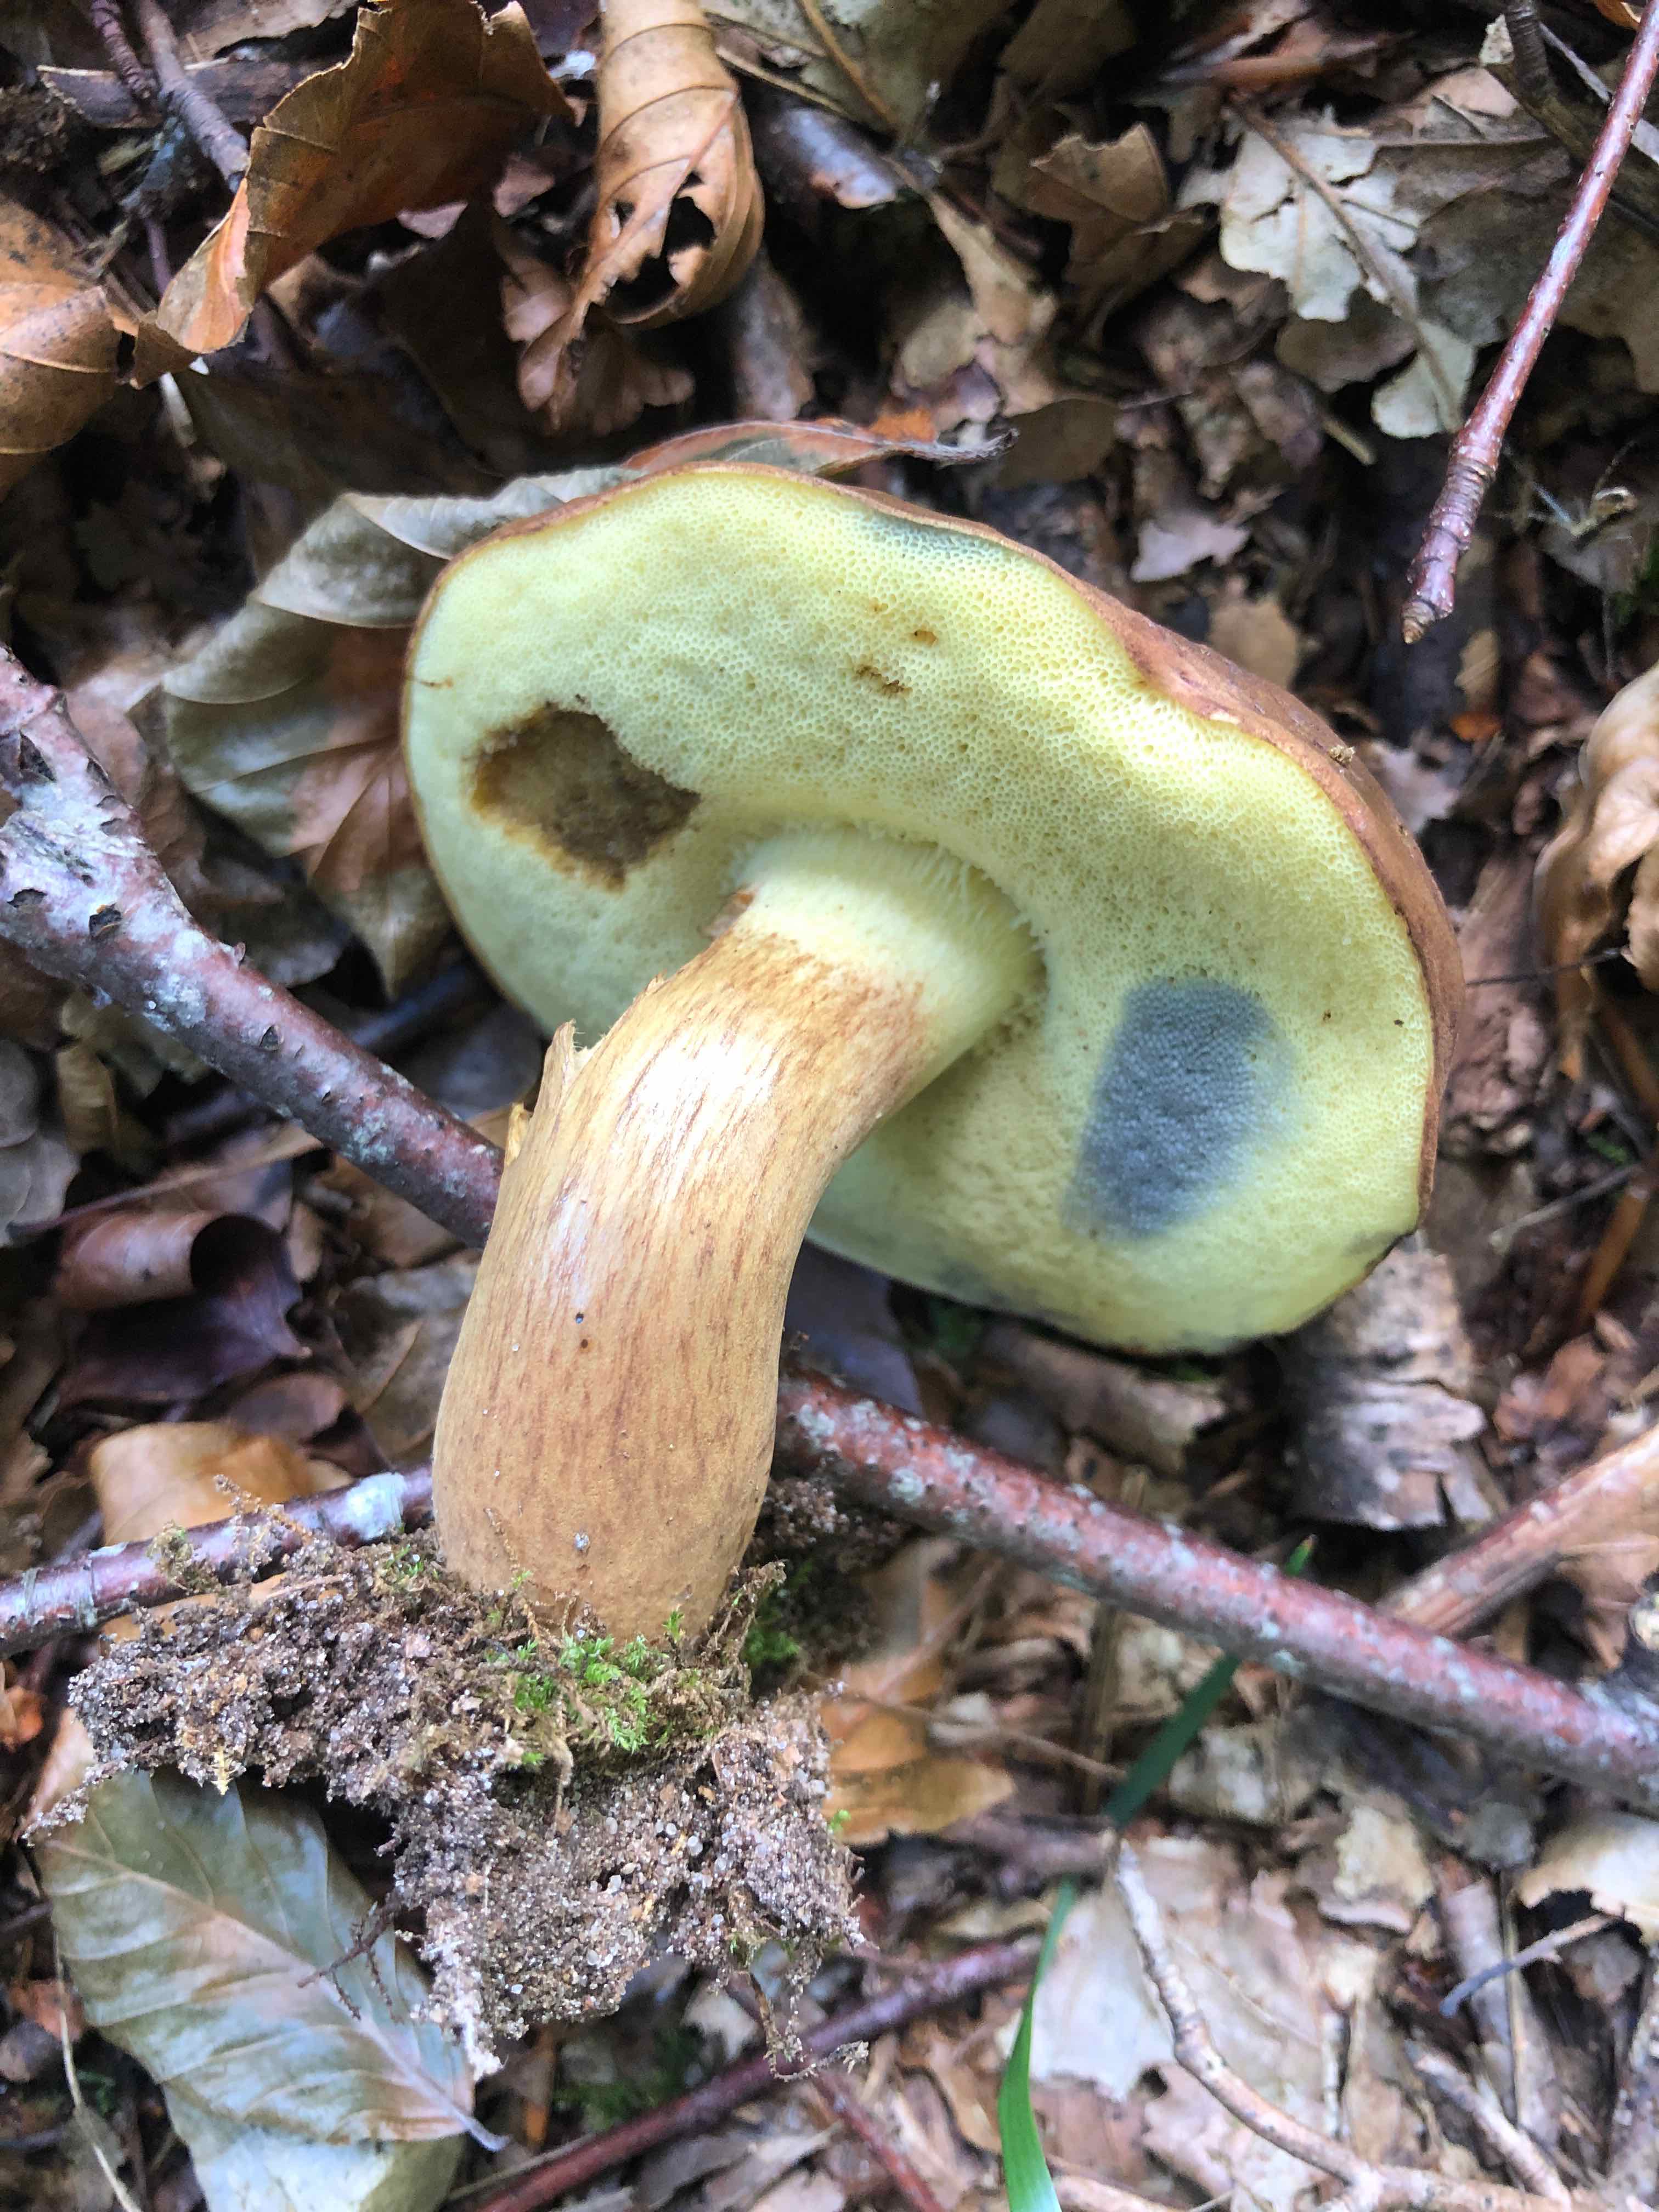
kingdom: Fungi
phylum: Basidiomycota
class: Agaricomycetes
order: Boletales
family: Boletaceae
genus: Imleria
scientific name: Imleria badia
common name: brunstokket rørhat
